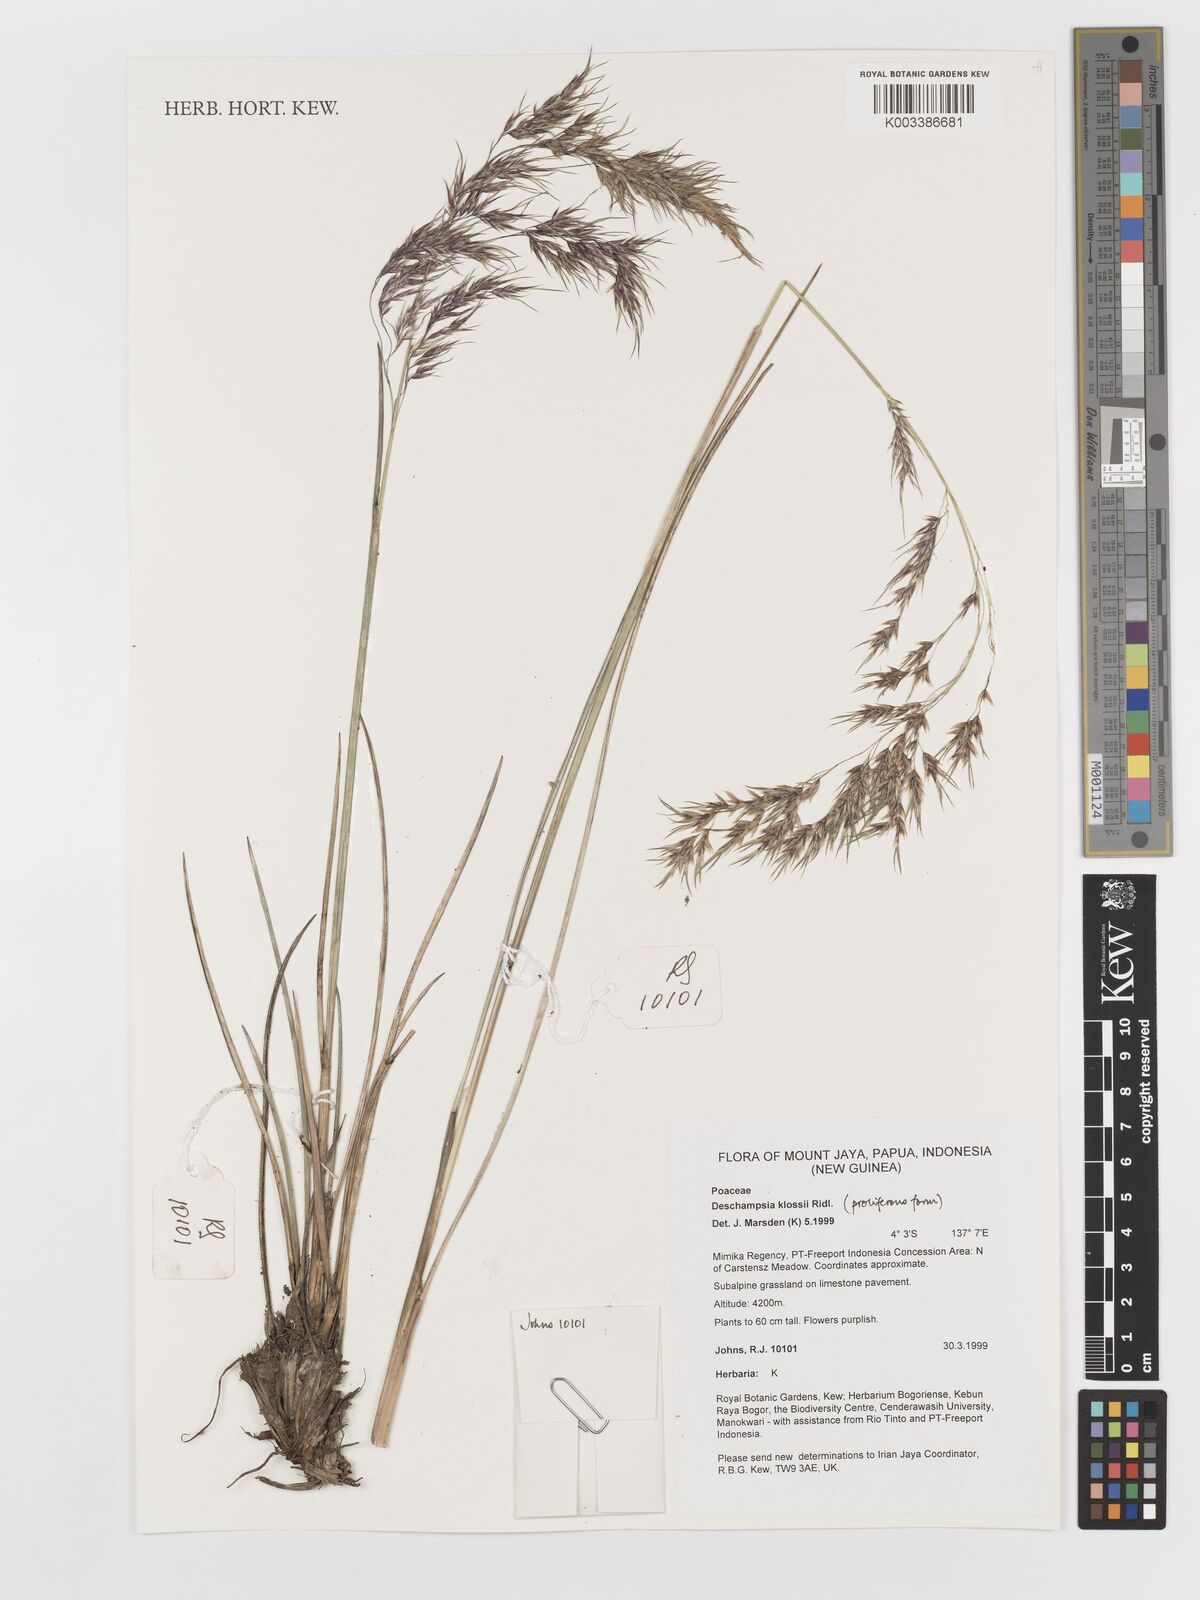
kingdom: Plantae
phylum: Tracheophyta
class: Liliopsida
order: Poales
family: Poaceae
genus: Deschampsia
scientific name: Deschampsia klossii
